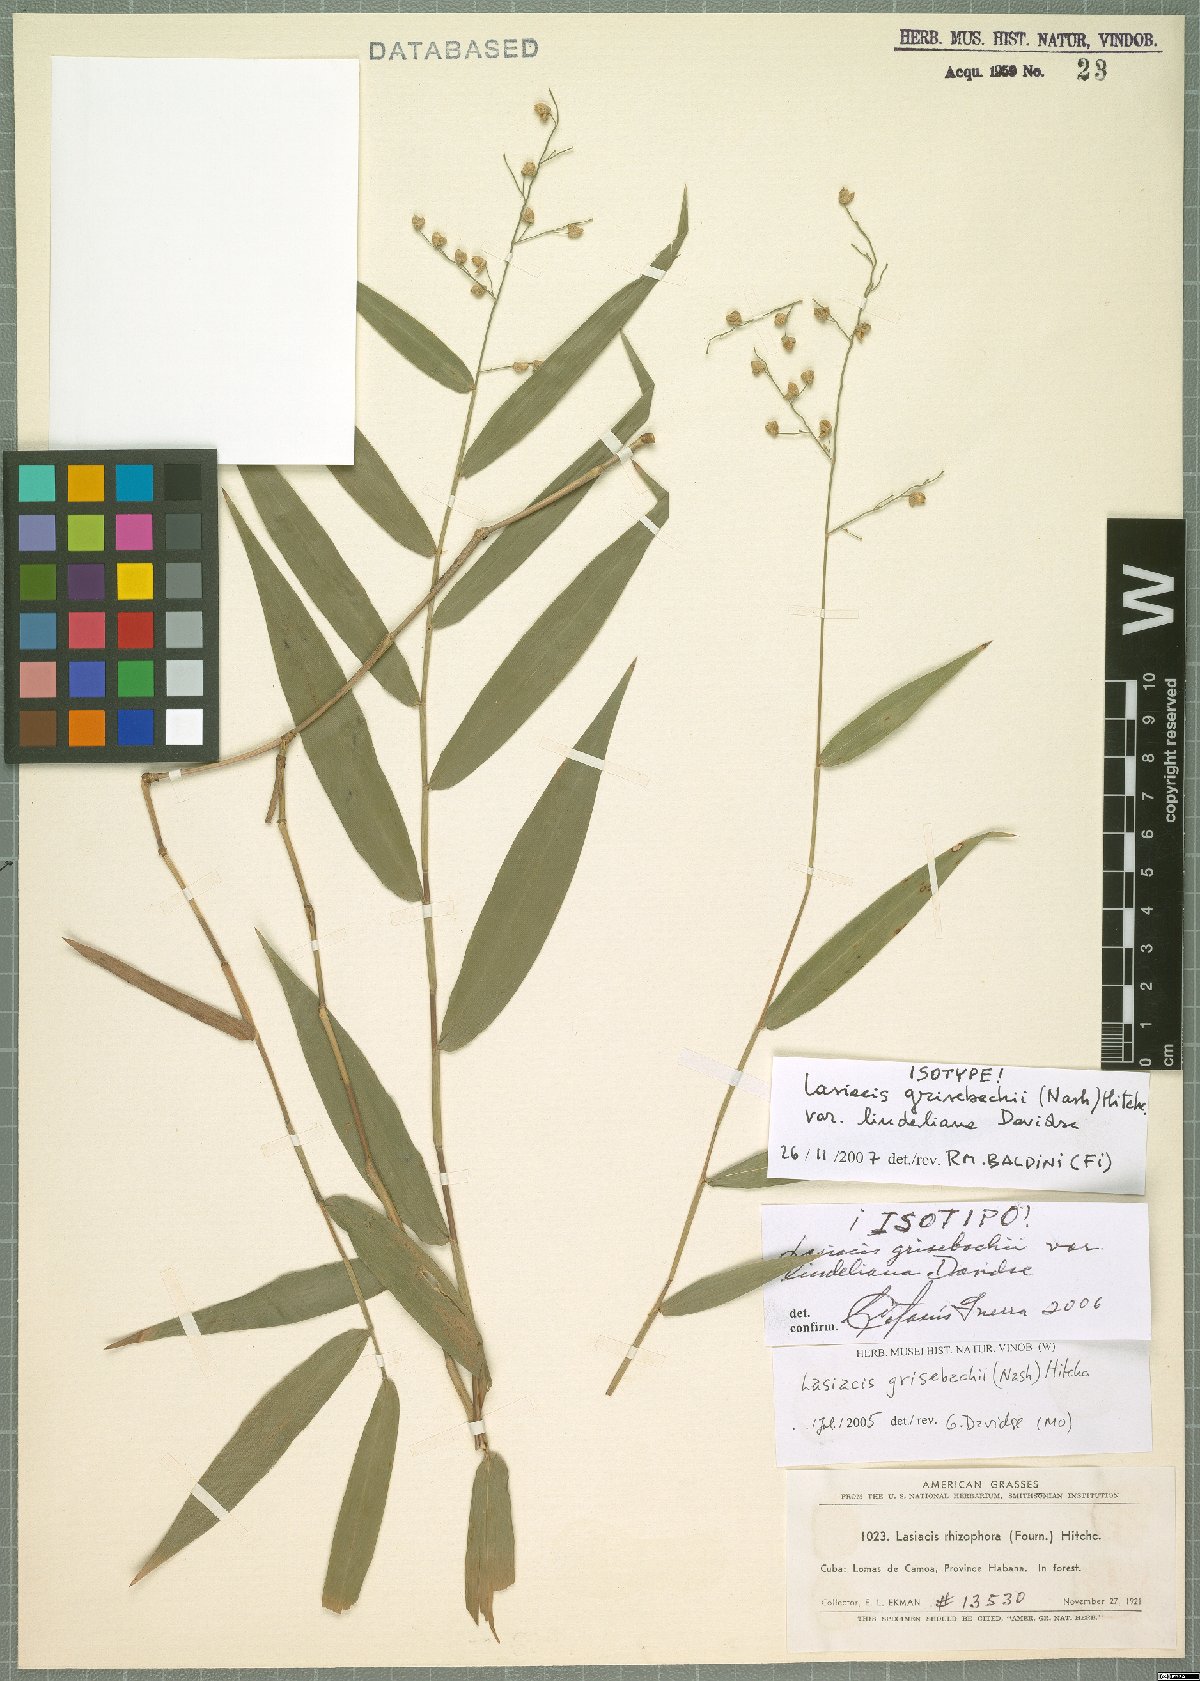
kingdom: Plantae
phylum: Tracheophyta
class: Liliopsida
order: Poales
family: Poaceae
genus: Lasiacis
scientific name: Lasiacis grisebachii
